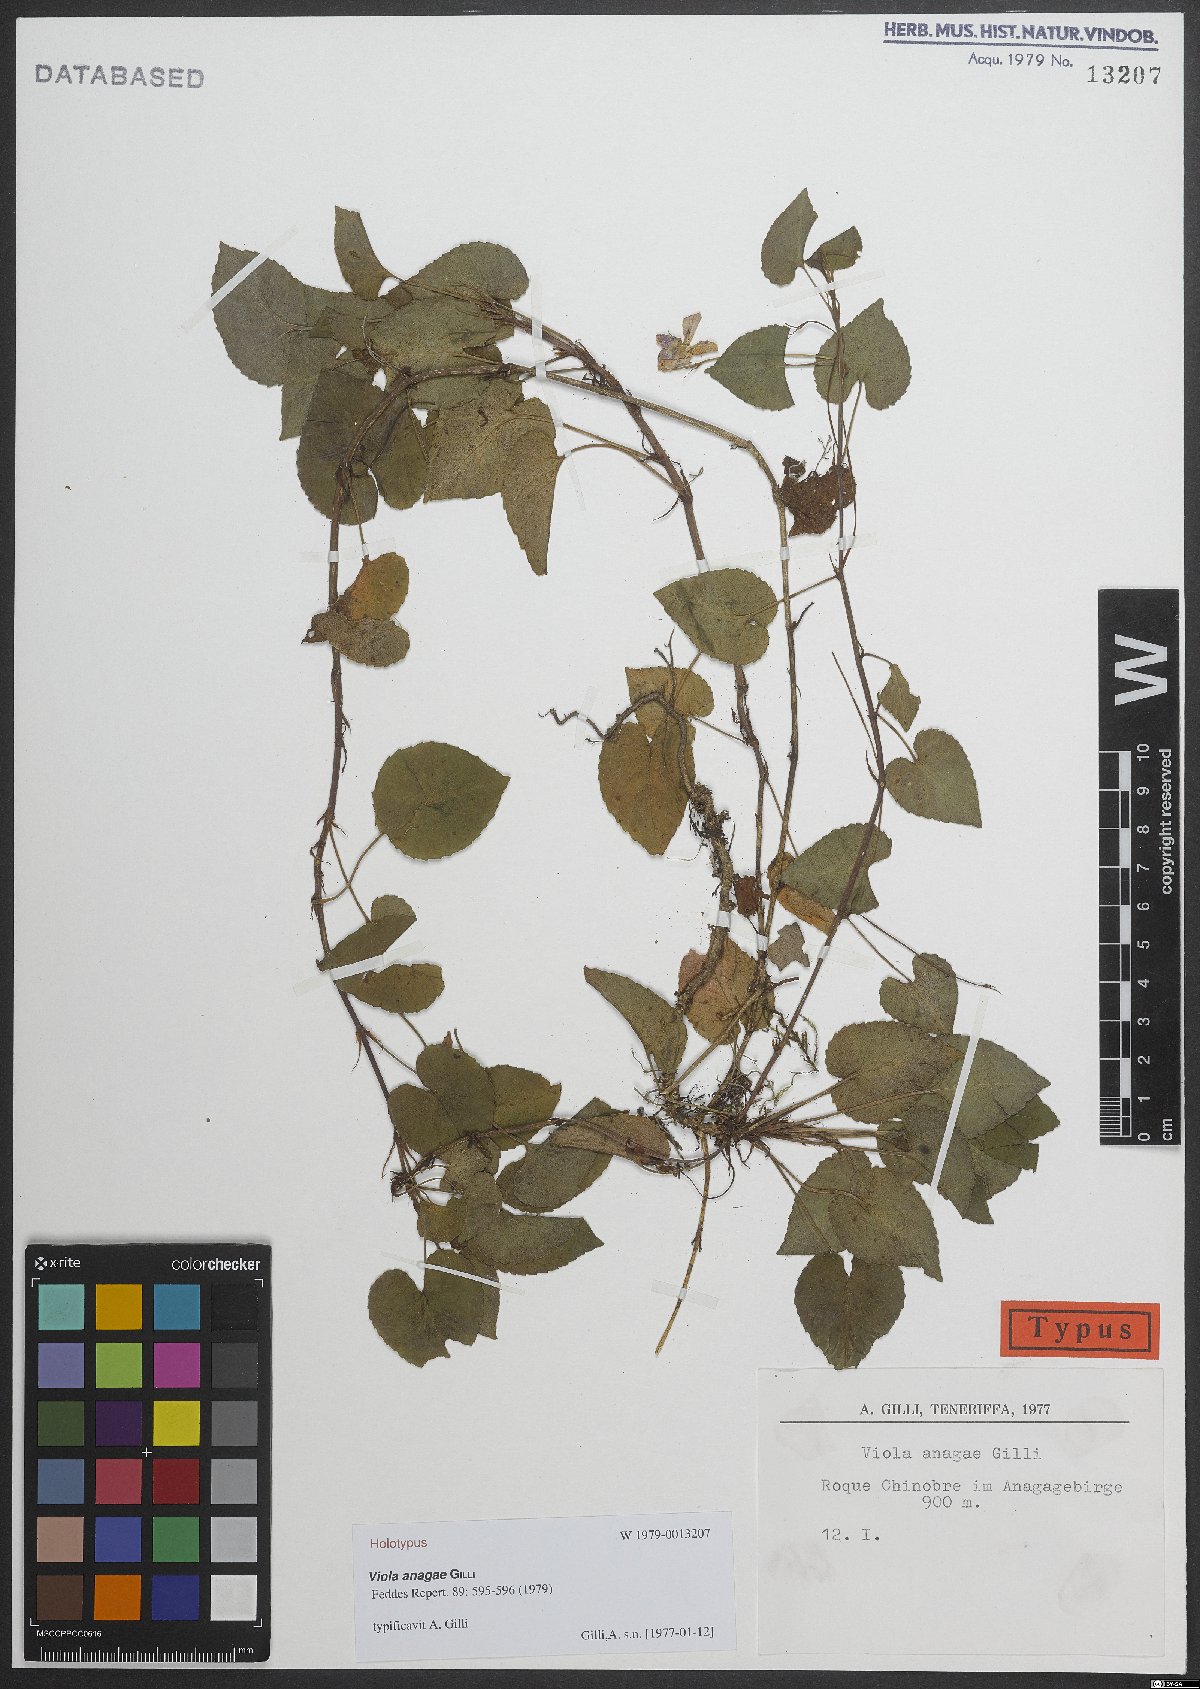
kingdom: Plantae
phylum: Tracheophyta
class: Magnoliopsida
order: Malpighiales
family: Violaceae
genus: Viola
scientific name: Viola anagae
